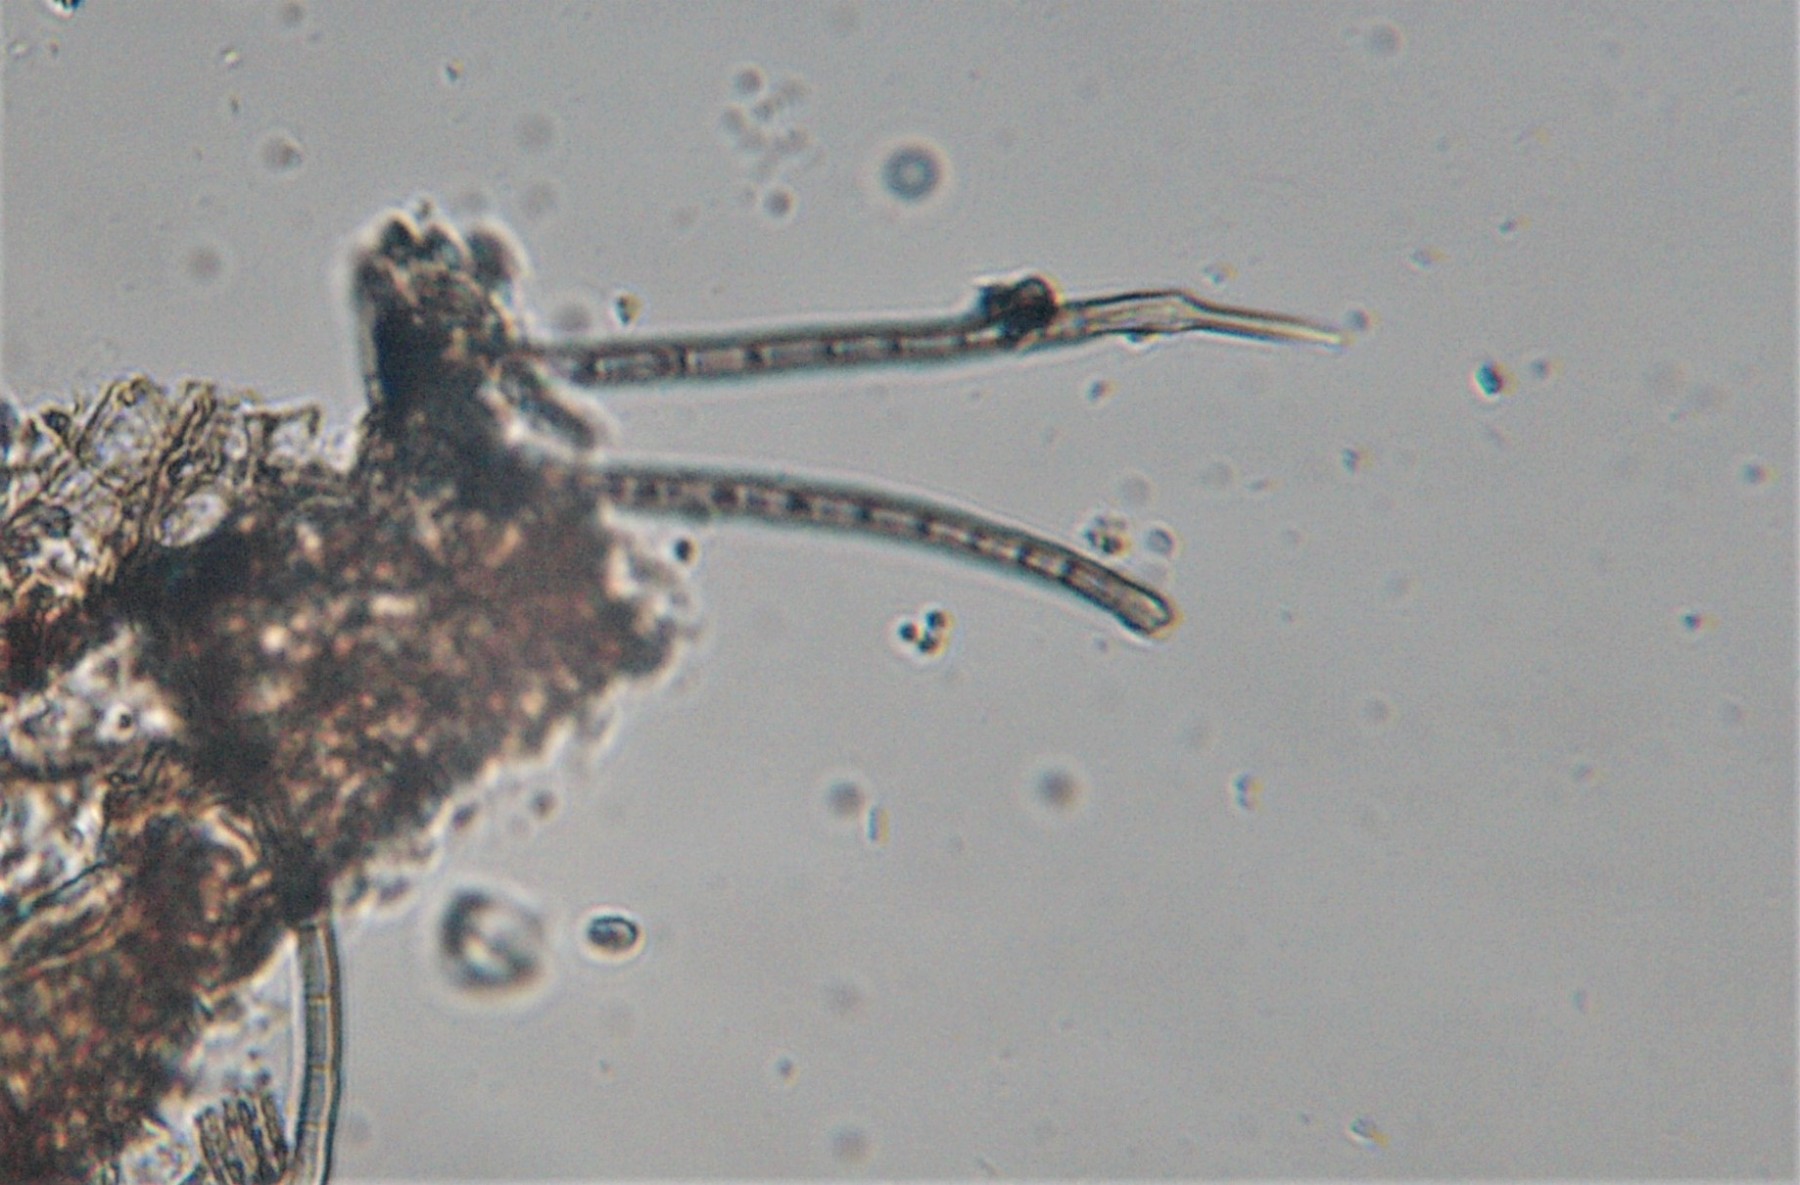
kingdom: Fungi
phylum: Ascomycota
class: Eurotiomycetes
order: Eurotiales
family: Aspergillaceae
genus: Penicillium
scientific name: Penicillium glaucoalbidum
